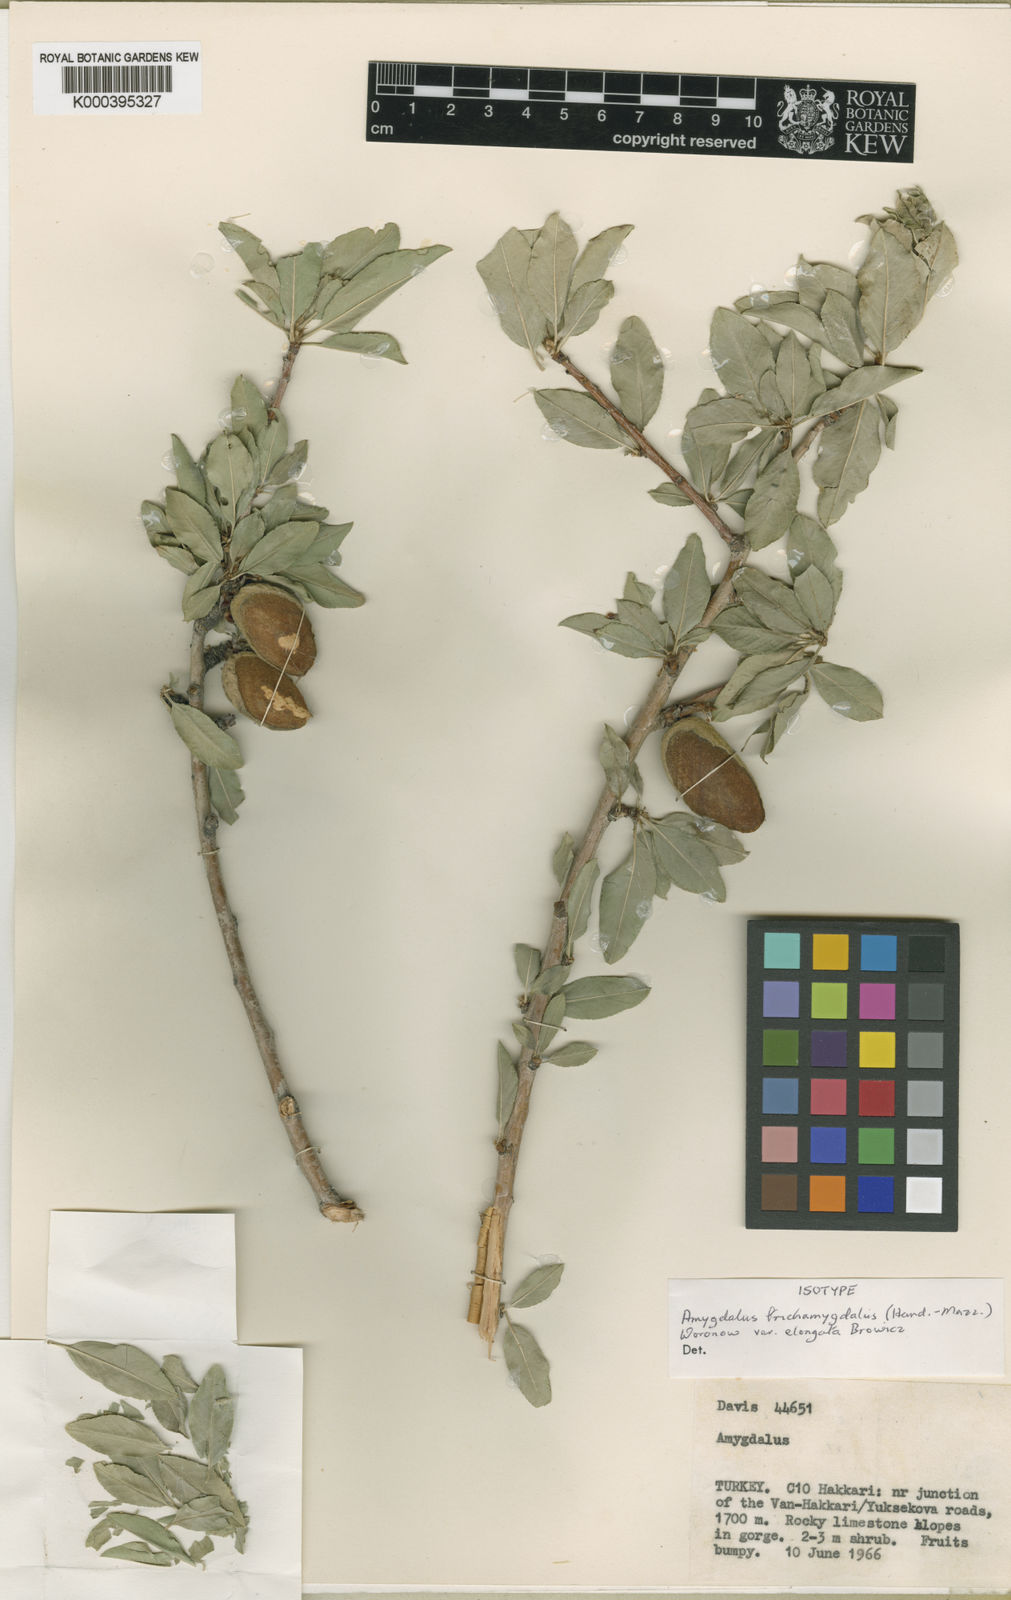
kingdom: Plantae
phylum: Tracheophyta
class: Magnoliopsida
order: Rosales
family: Rosaceae
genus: Prunus
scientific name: Prunus trichamygdalus
